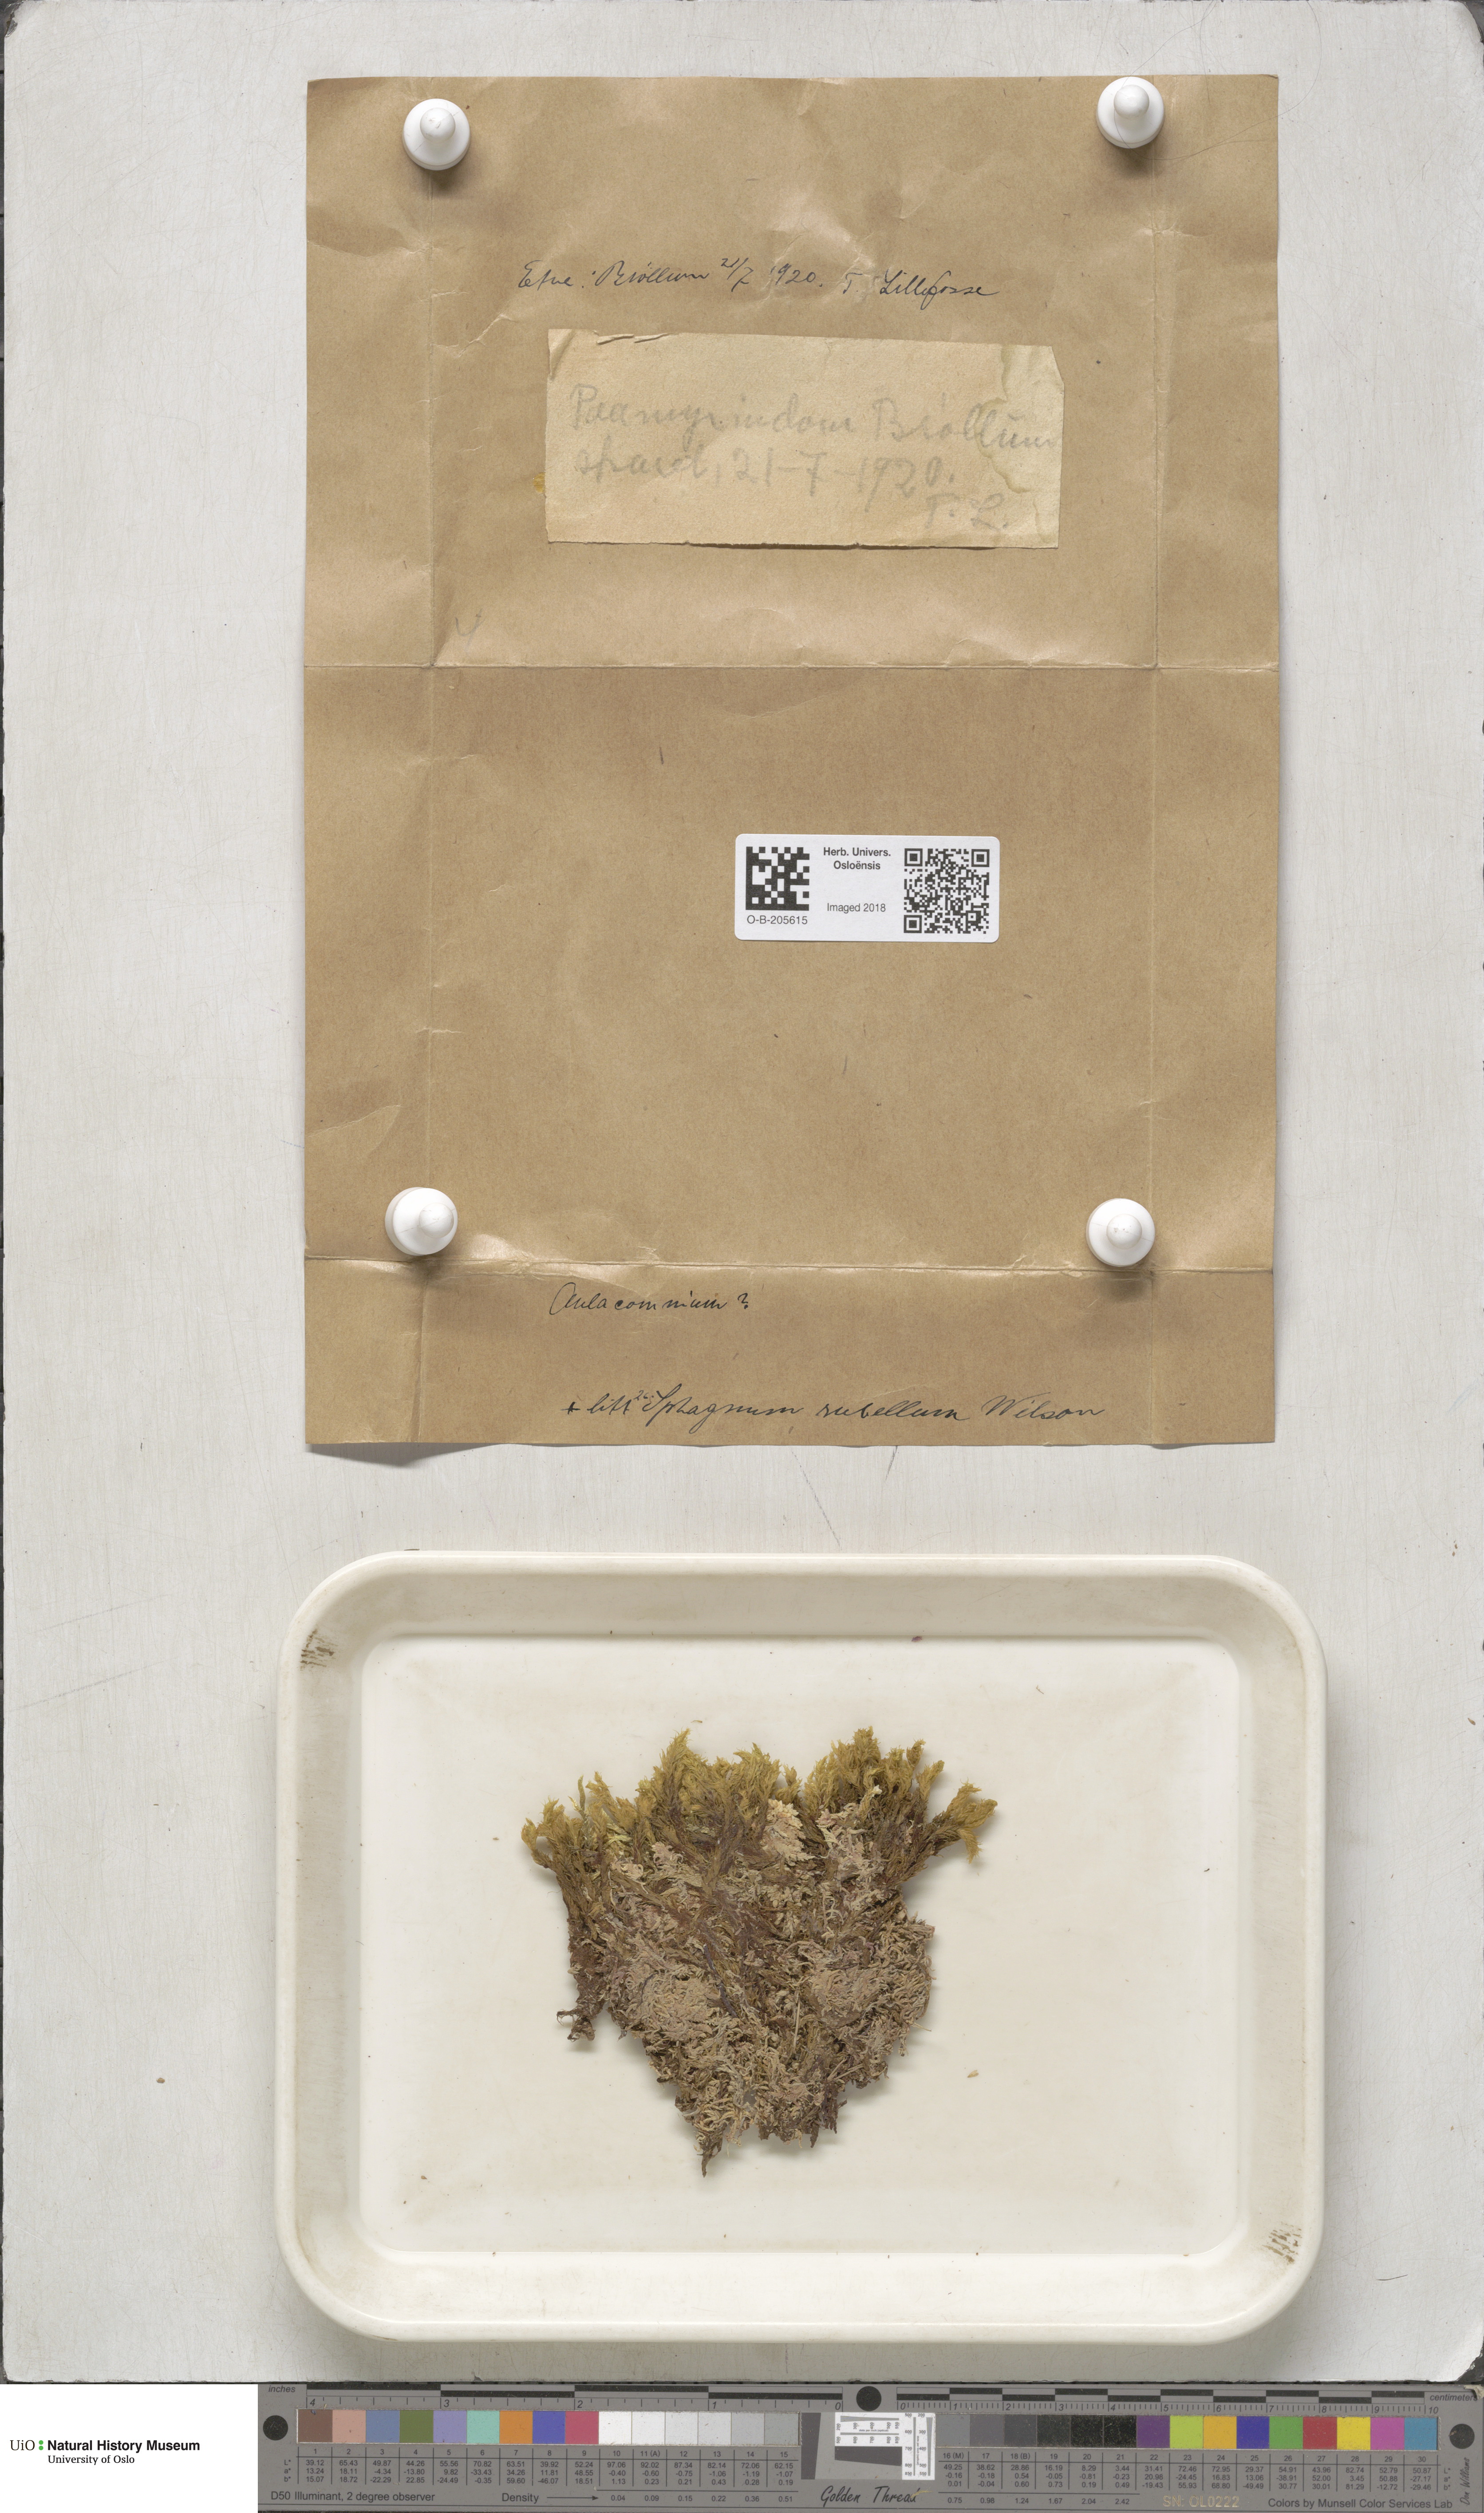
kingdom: Plantae
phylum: Bryophyta
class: Sphagnopsida
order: Sphagnales
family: Sphagnaceae
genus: Sphagnum
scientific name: Sphagnum rubellum
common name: Red peat moss
